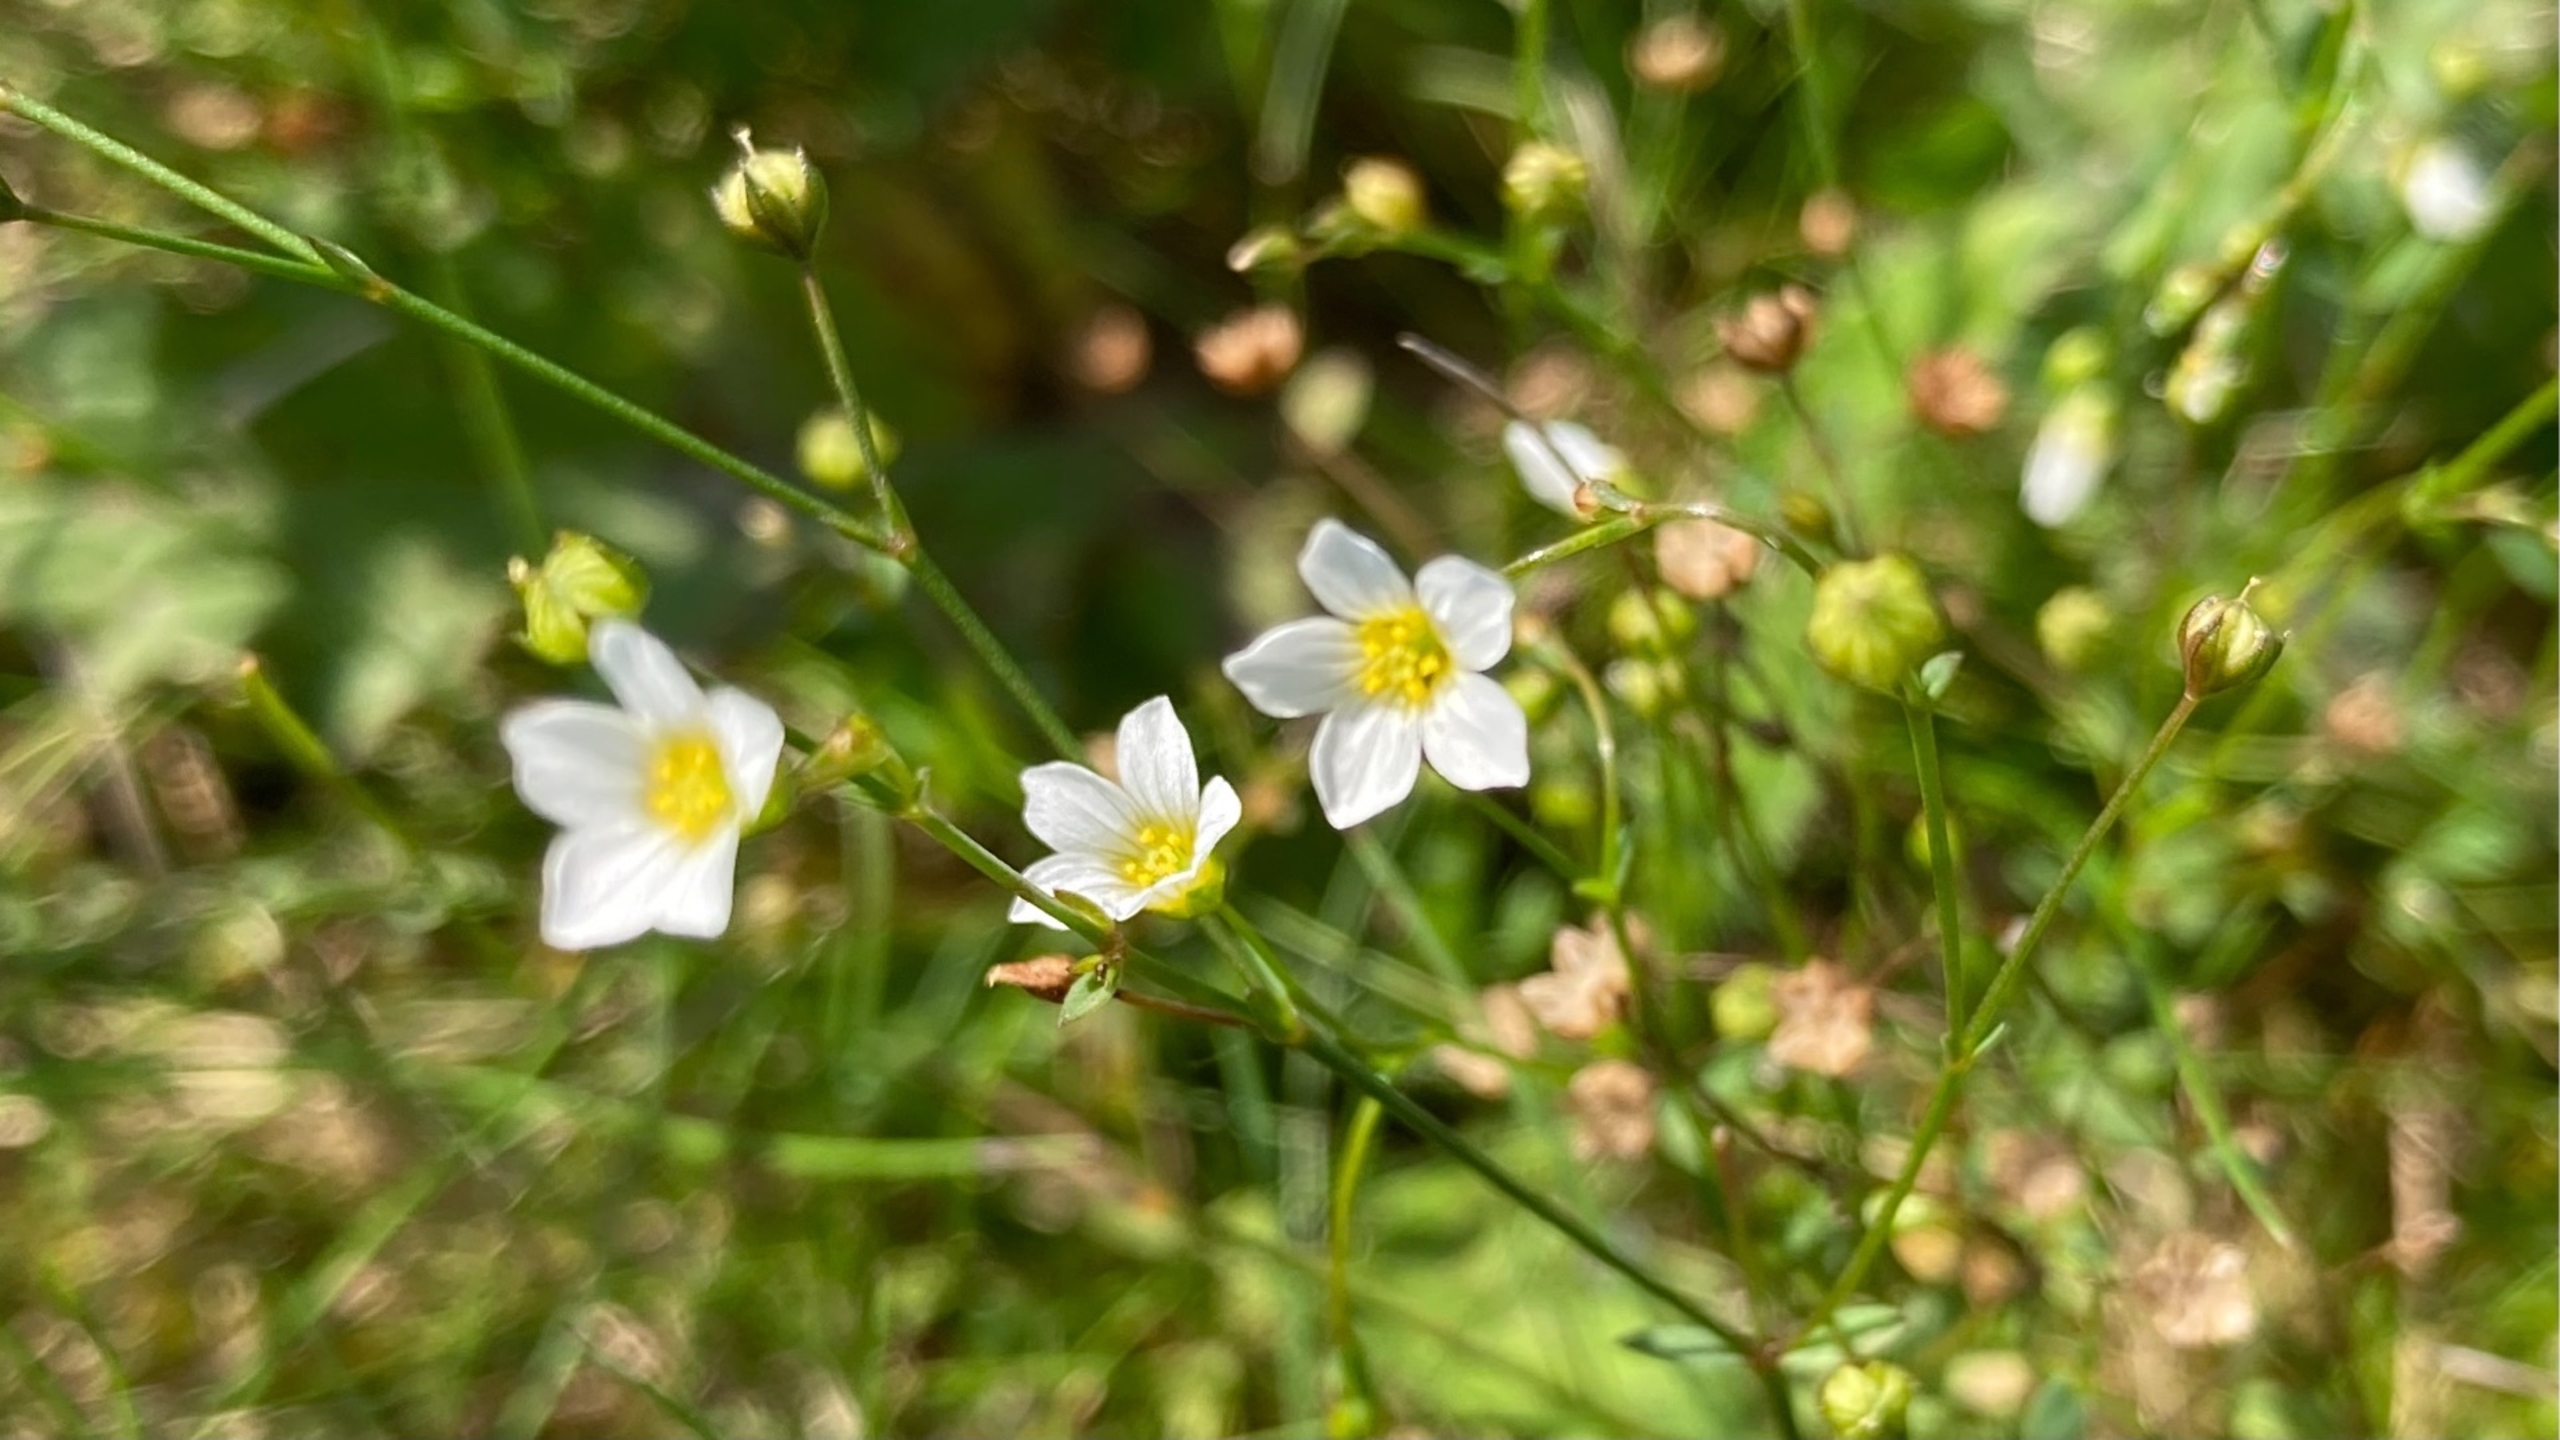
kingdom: Plantae
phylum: Tracheophyta
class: Magnoliopsida
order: Malpighiales
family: Linaceae
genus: Linum
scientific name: Linum catharticum
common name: Vild hør
